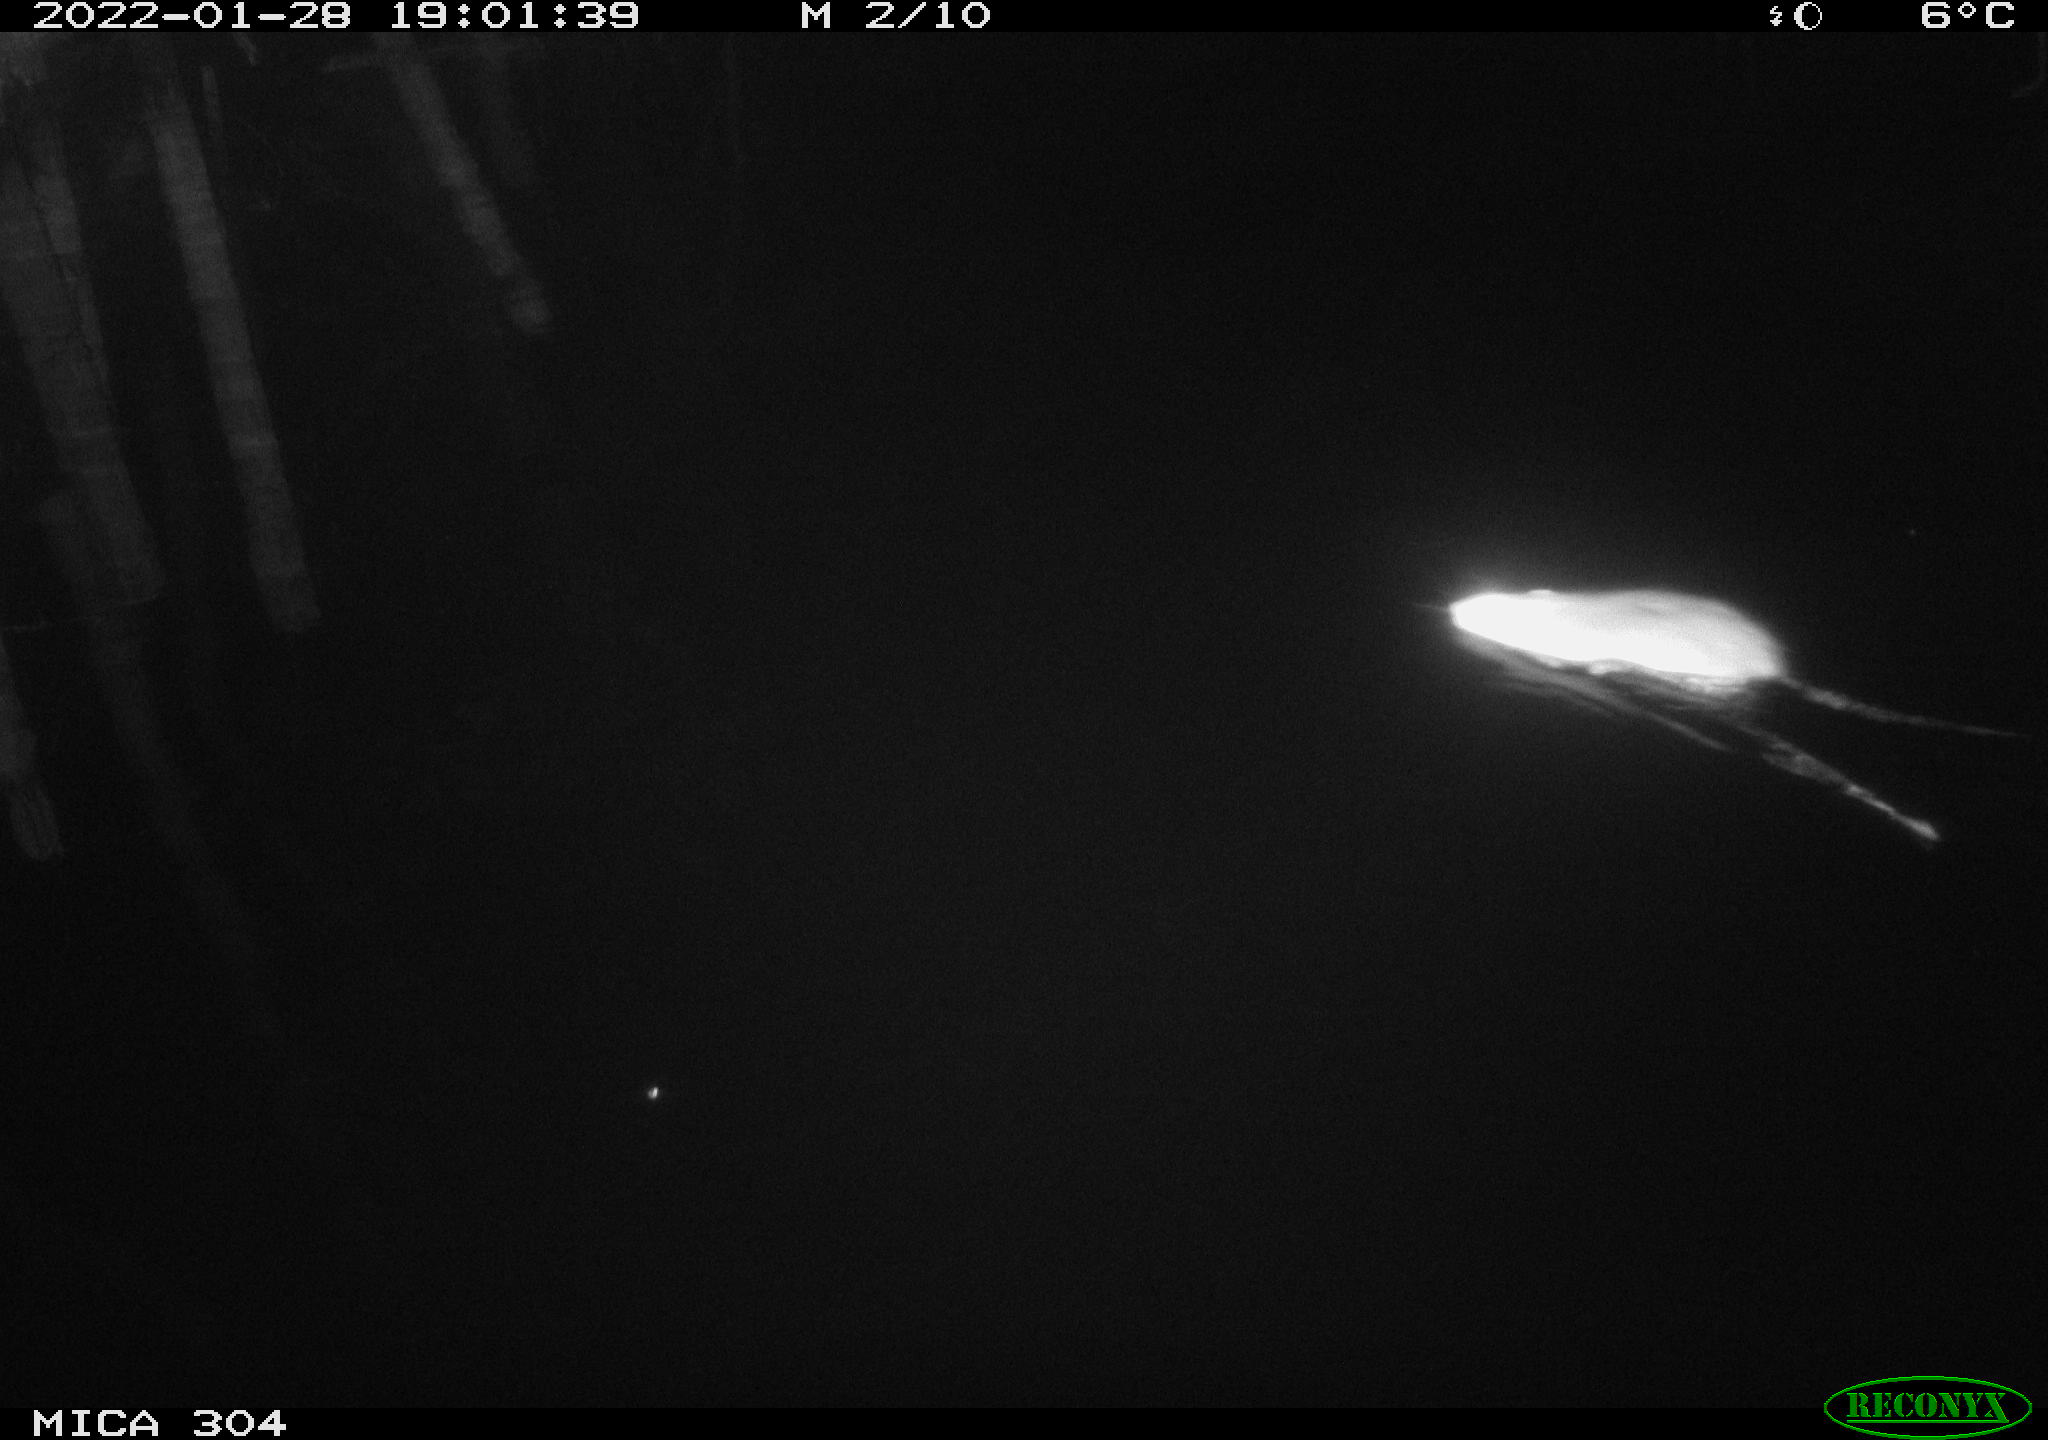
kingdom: Animalia
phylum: Chordata
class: Mammalia
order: Rodentia
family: Muridae
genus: Rattus
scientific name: Rattus norvegicus
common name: Brown rat
